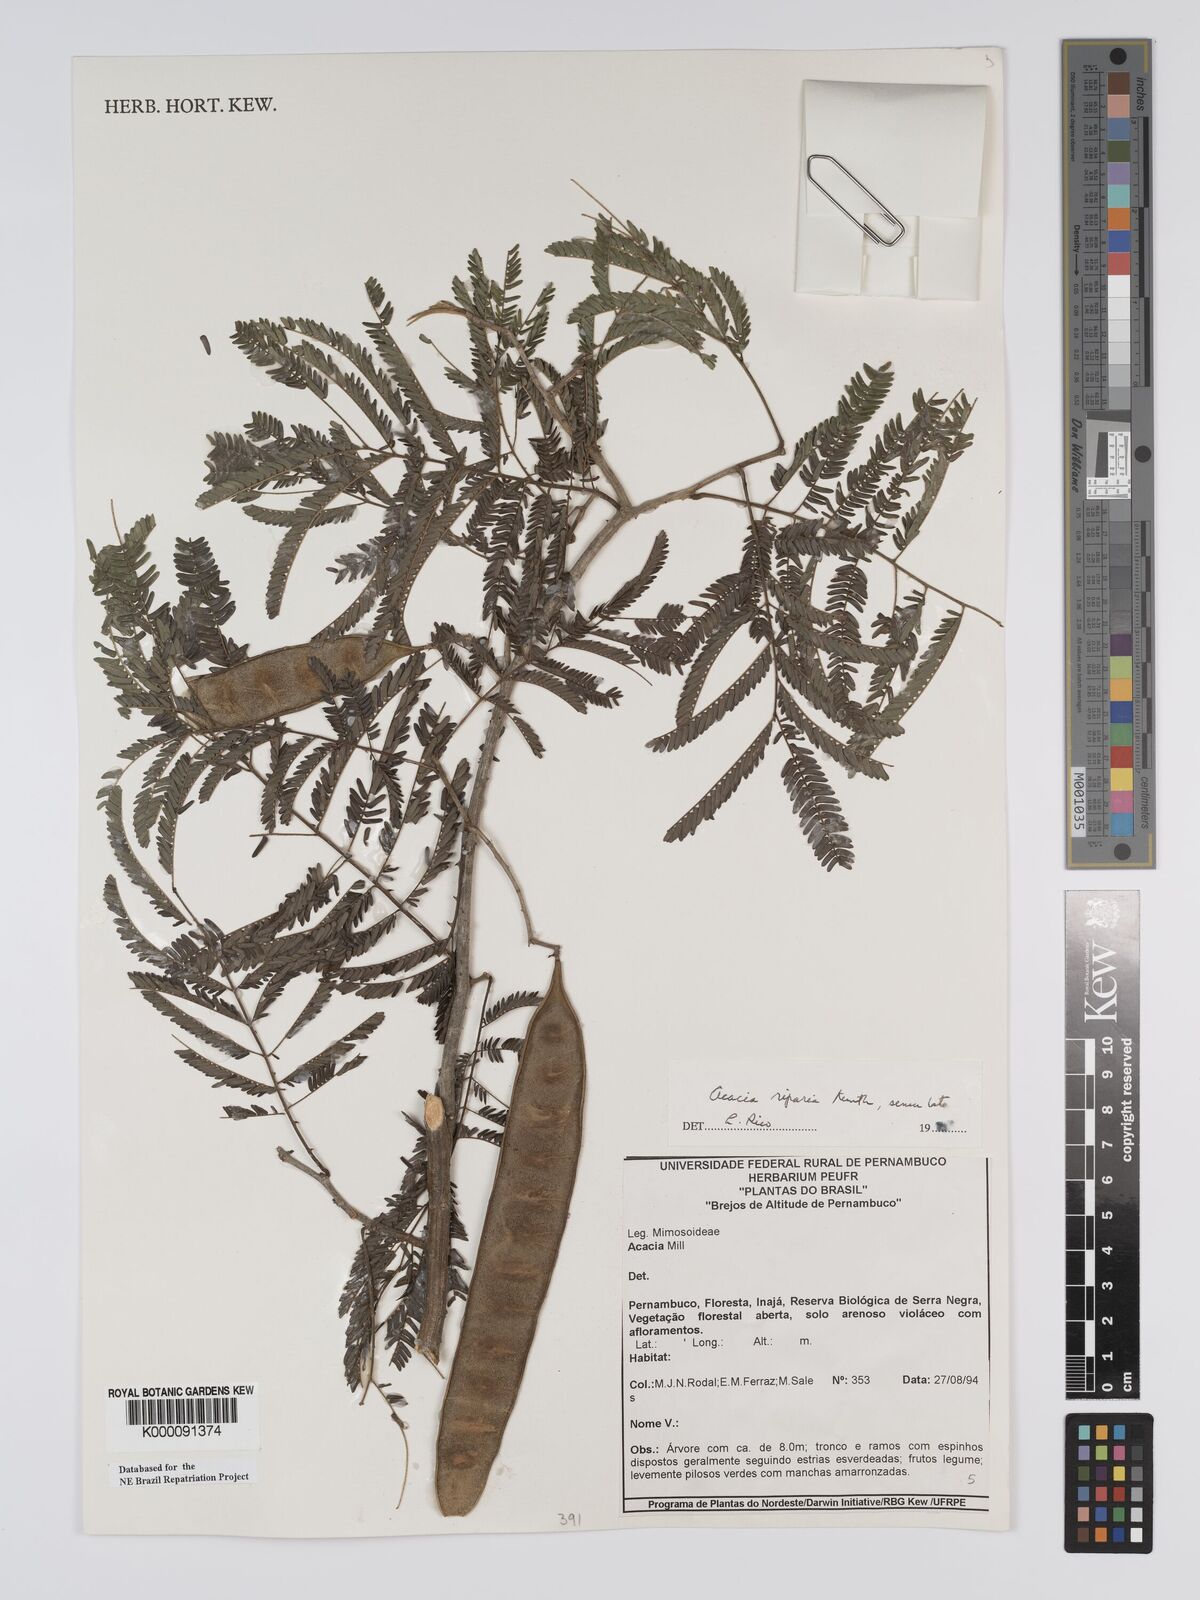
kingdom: Plantae
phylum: Tracheophyta
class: Magnoliopsida
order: Fabales
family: Fabaceae
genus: Senegalia
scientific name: Senegalia riparia
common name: Catch-and-keep
